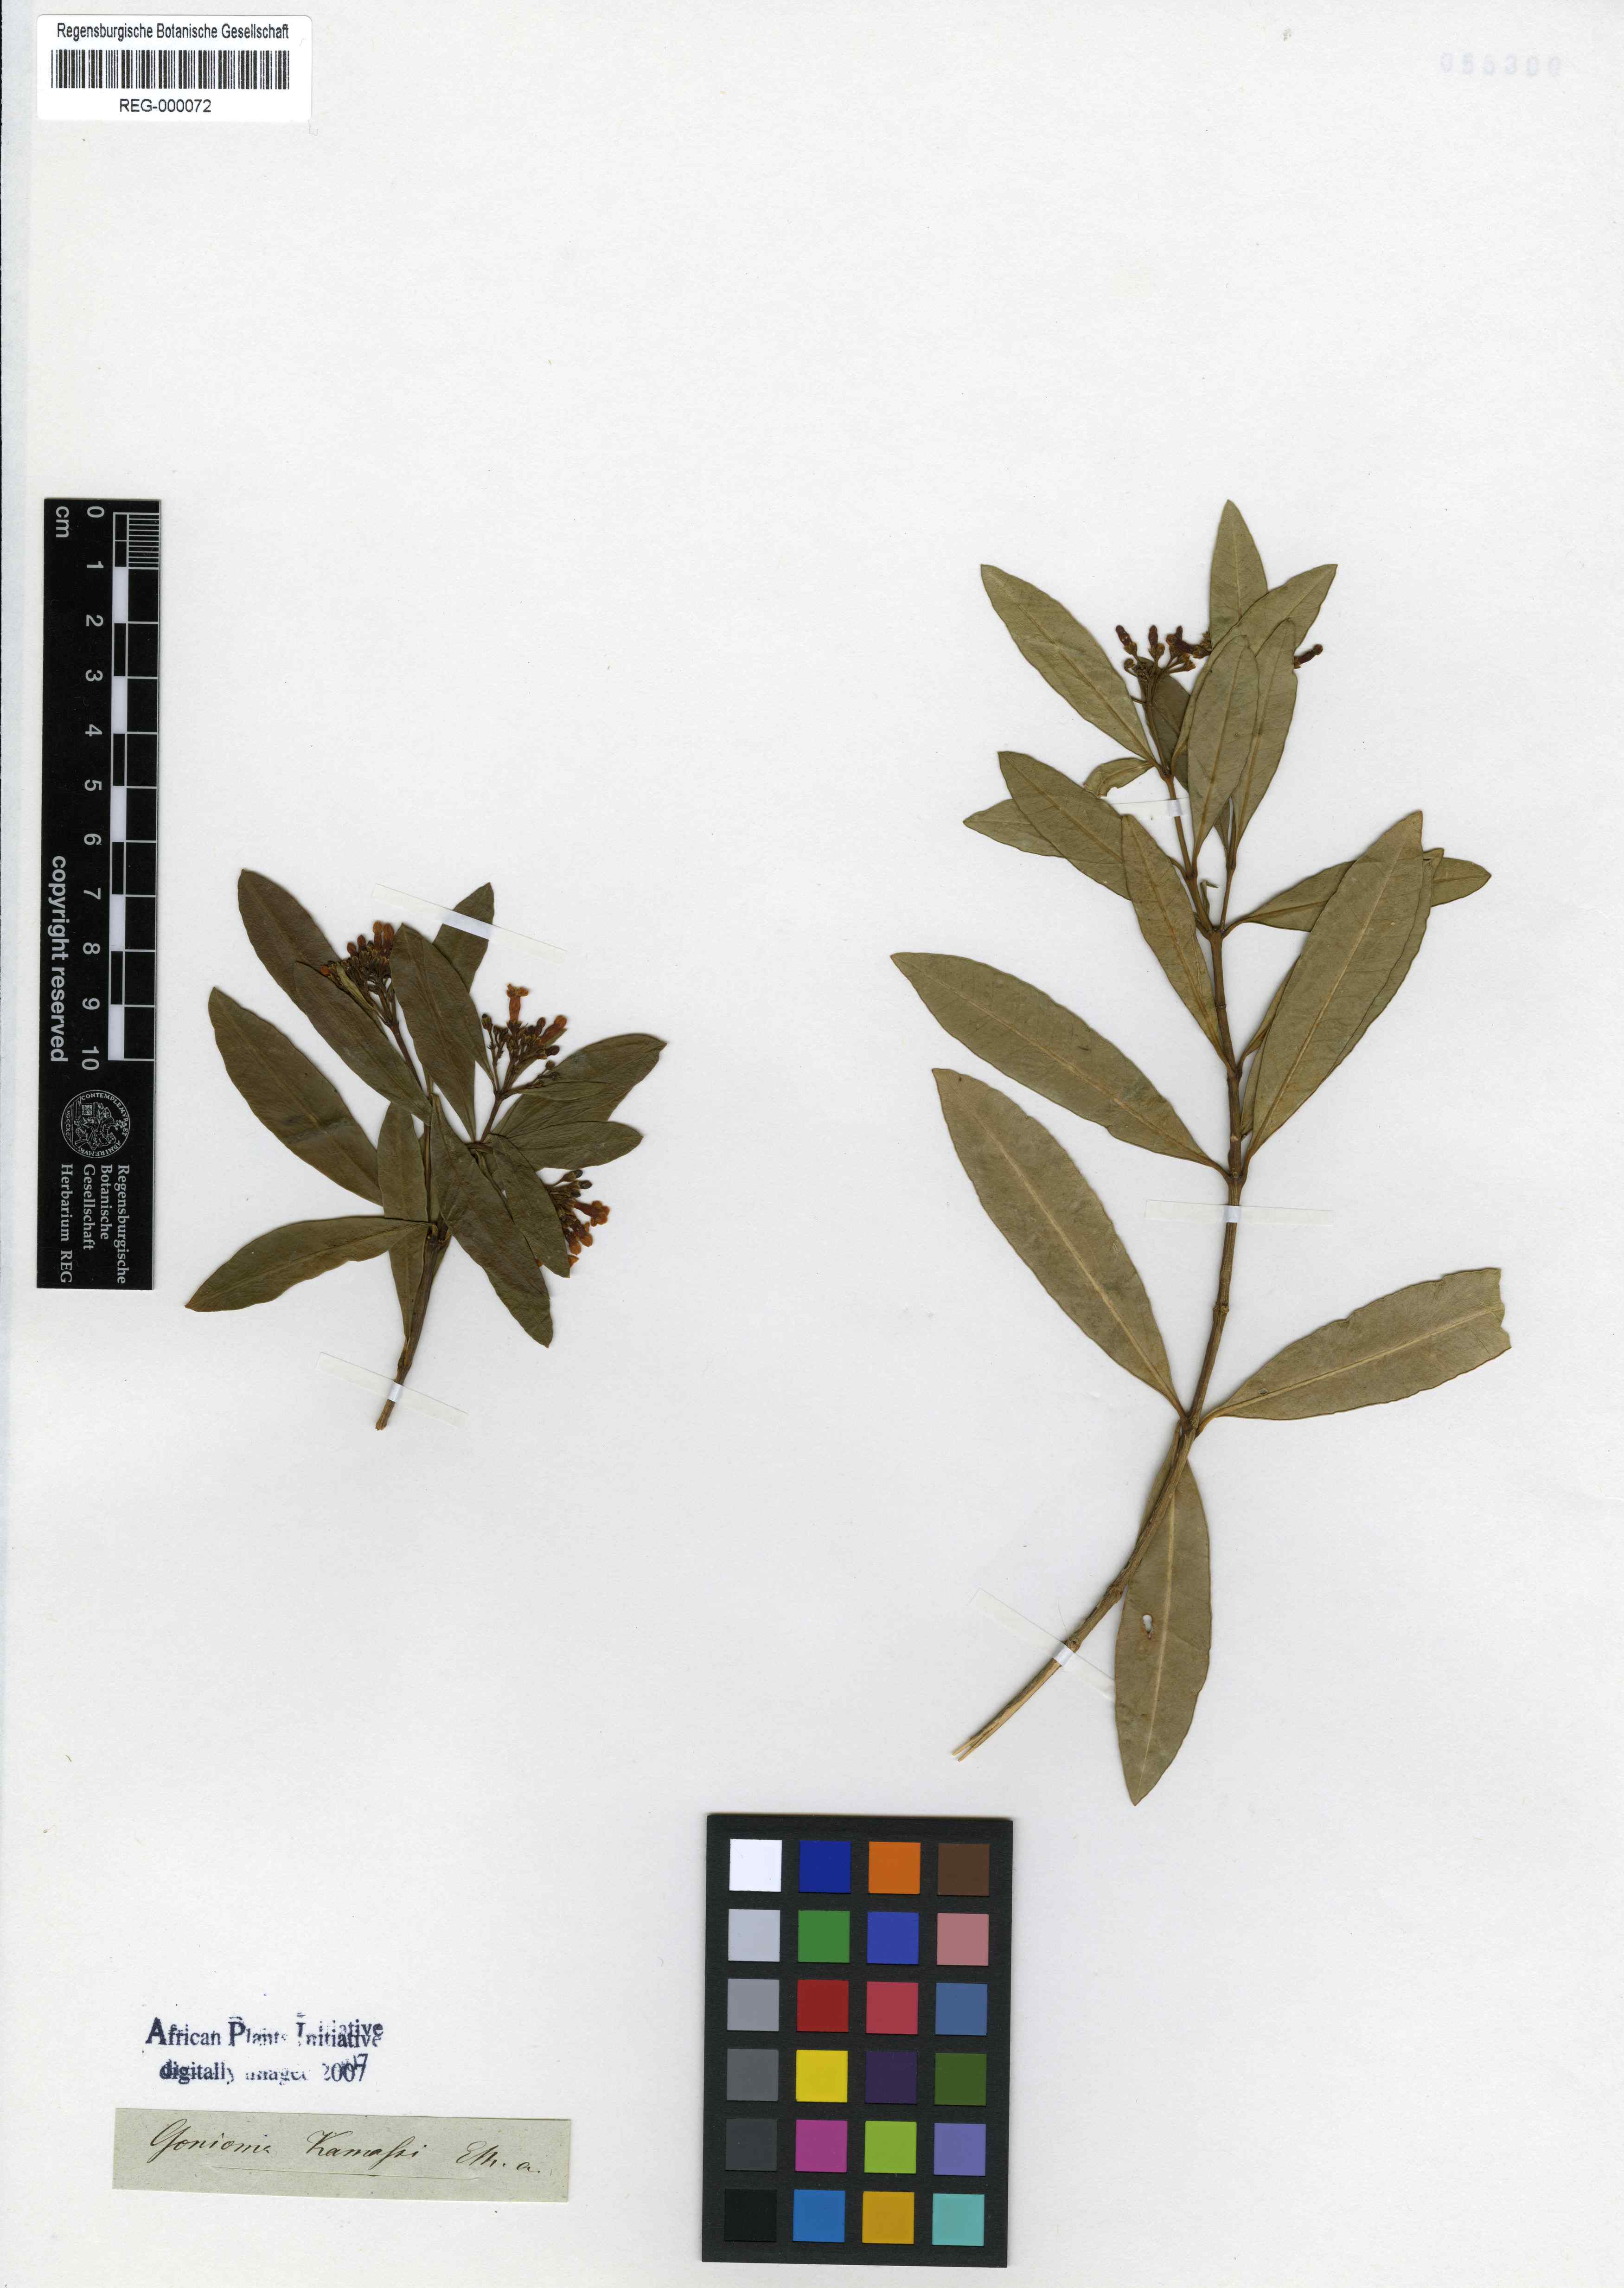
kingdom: Plantae
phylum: Tracheophyta
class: Magnoliopsida
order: Gentianales
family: Apocynaceae
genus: Gonioma
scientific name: Gonioma kamassi
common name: Kamassi
